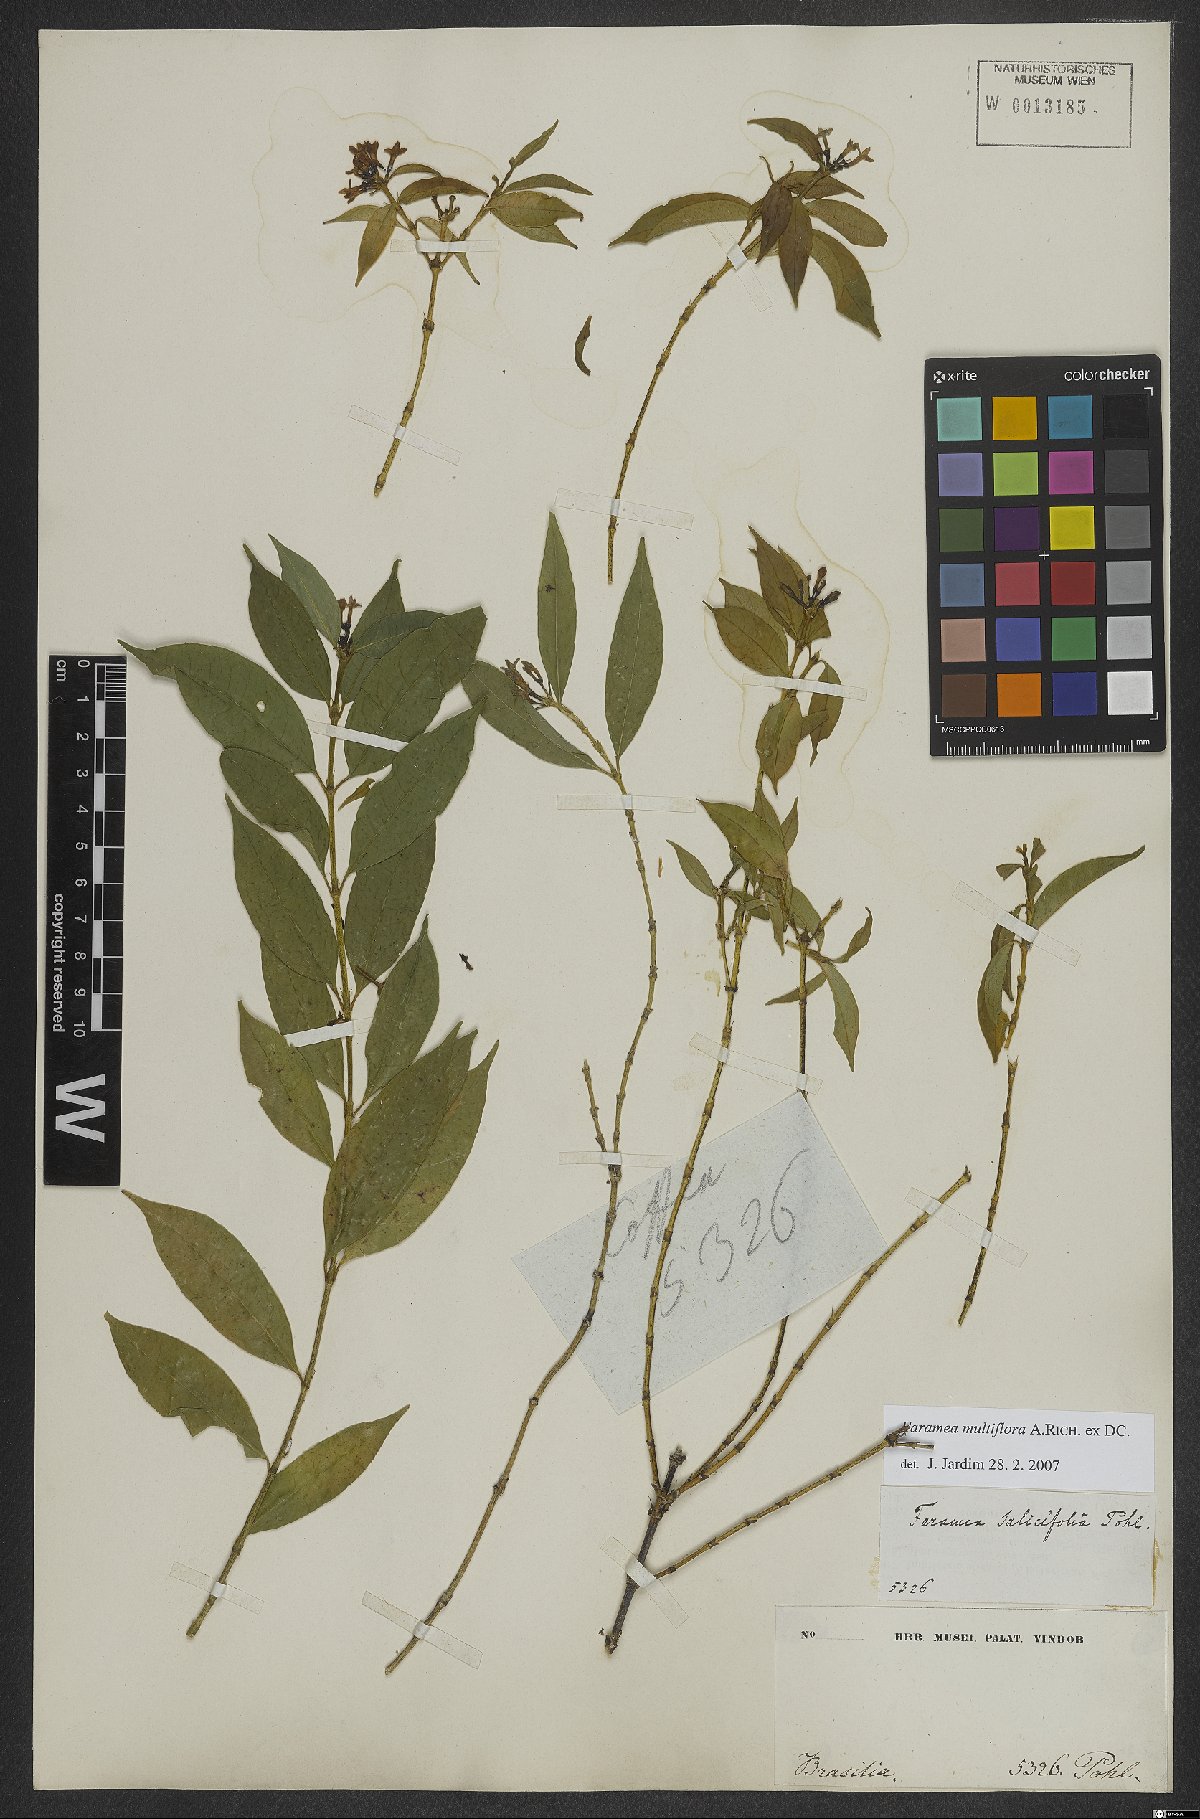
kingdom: Plantae
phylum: Tracheophyta
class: Magnoliopsida
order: Gentianales
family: Rubiaceae
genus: Faramea
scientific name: Faramea multiflora
